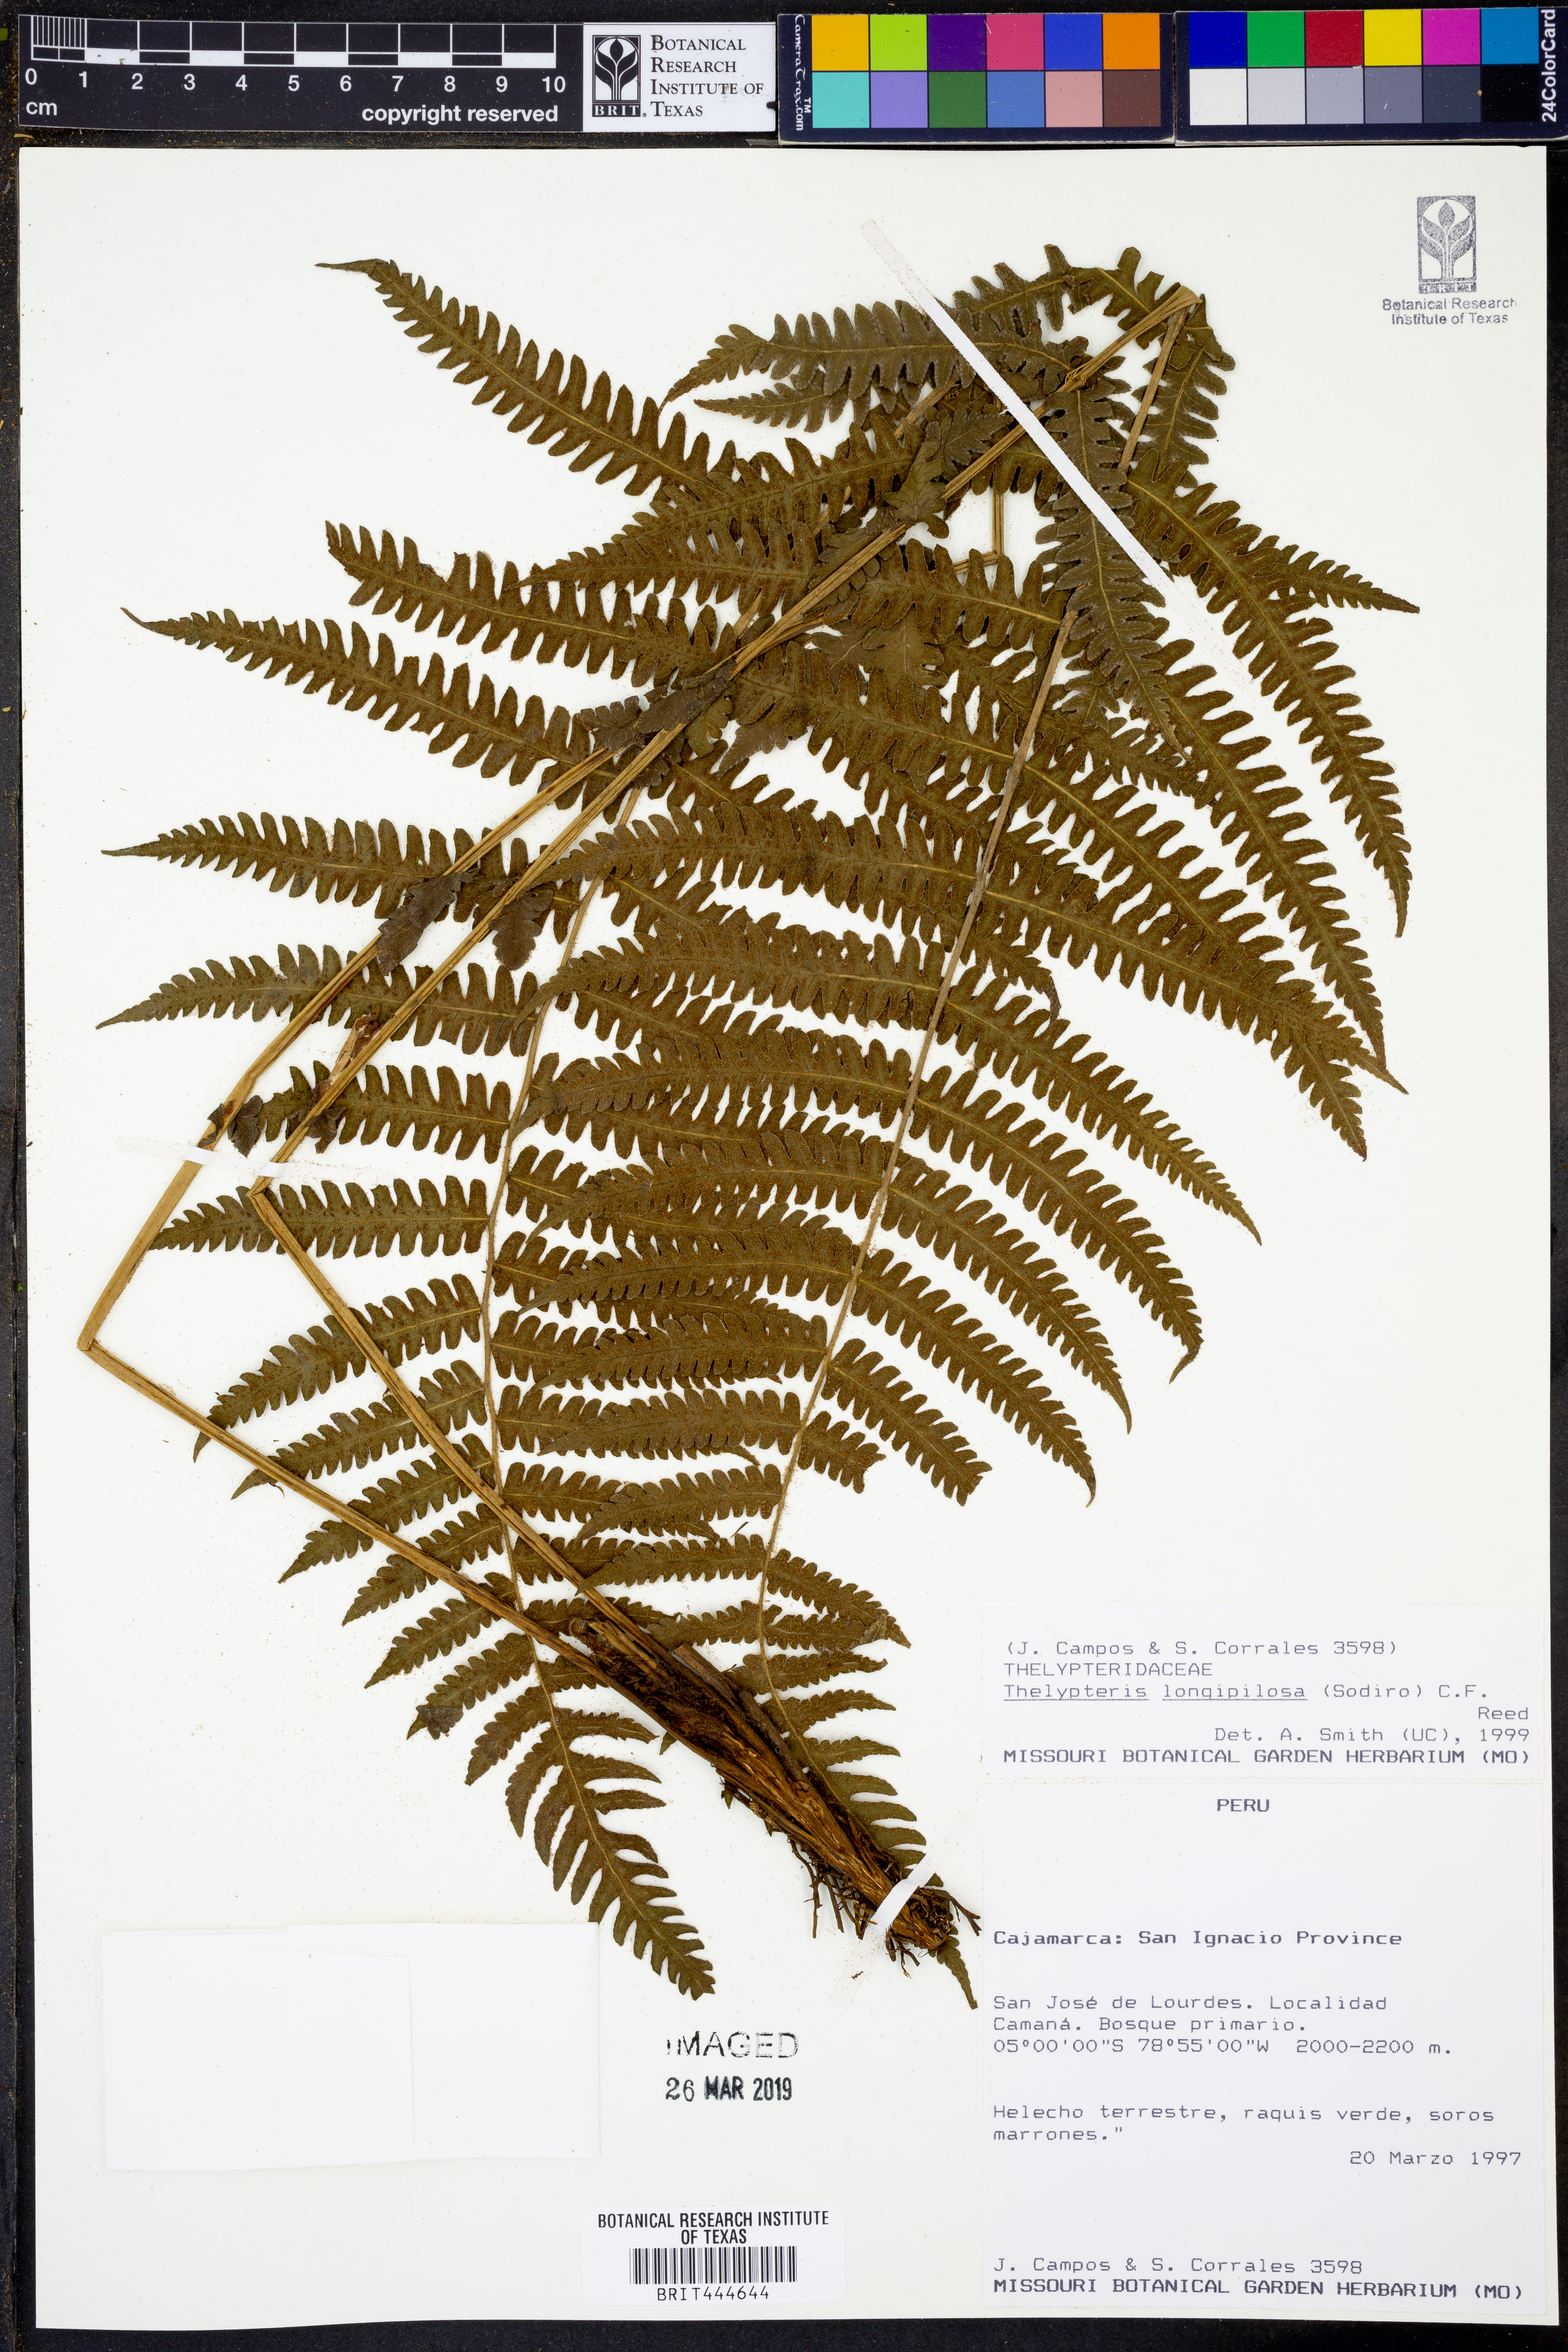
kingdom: Plantae
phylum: Tracheophyta
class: Polypodiopsida
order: Polypodiales
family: Thelypteridaceae
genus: Amauropelta
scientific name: Amauropelta longipilosa
